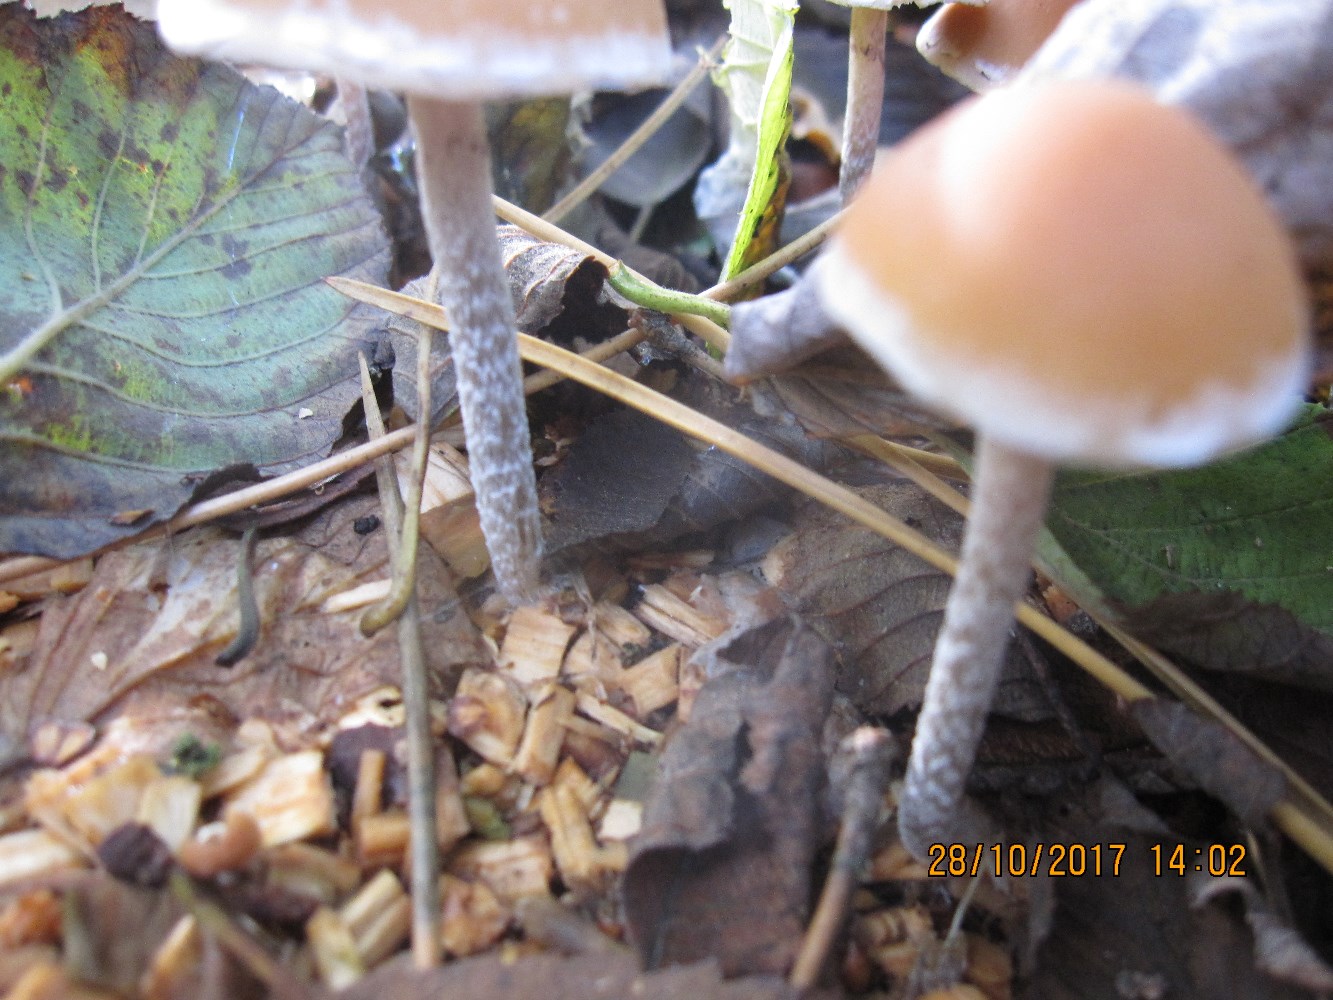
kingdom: Fungi
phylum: Basidiomycota
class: Agaricomycetes
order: Agaricales
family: Strophariaceae
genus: Hypholoma
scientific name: Hypholoma marginatum
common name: enlig svovlhat
